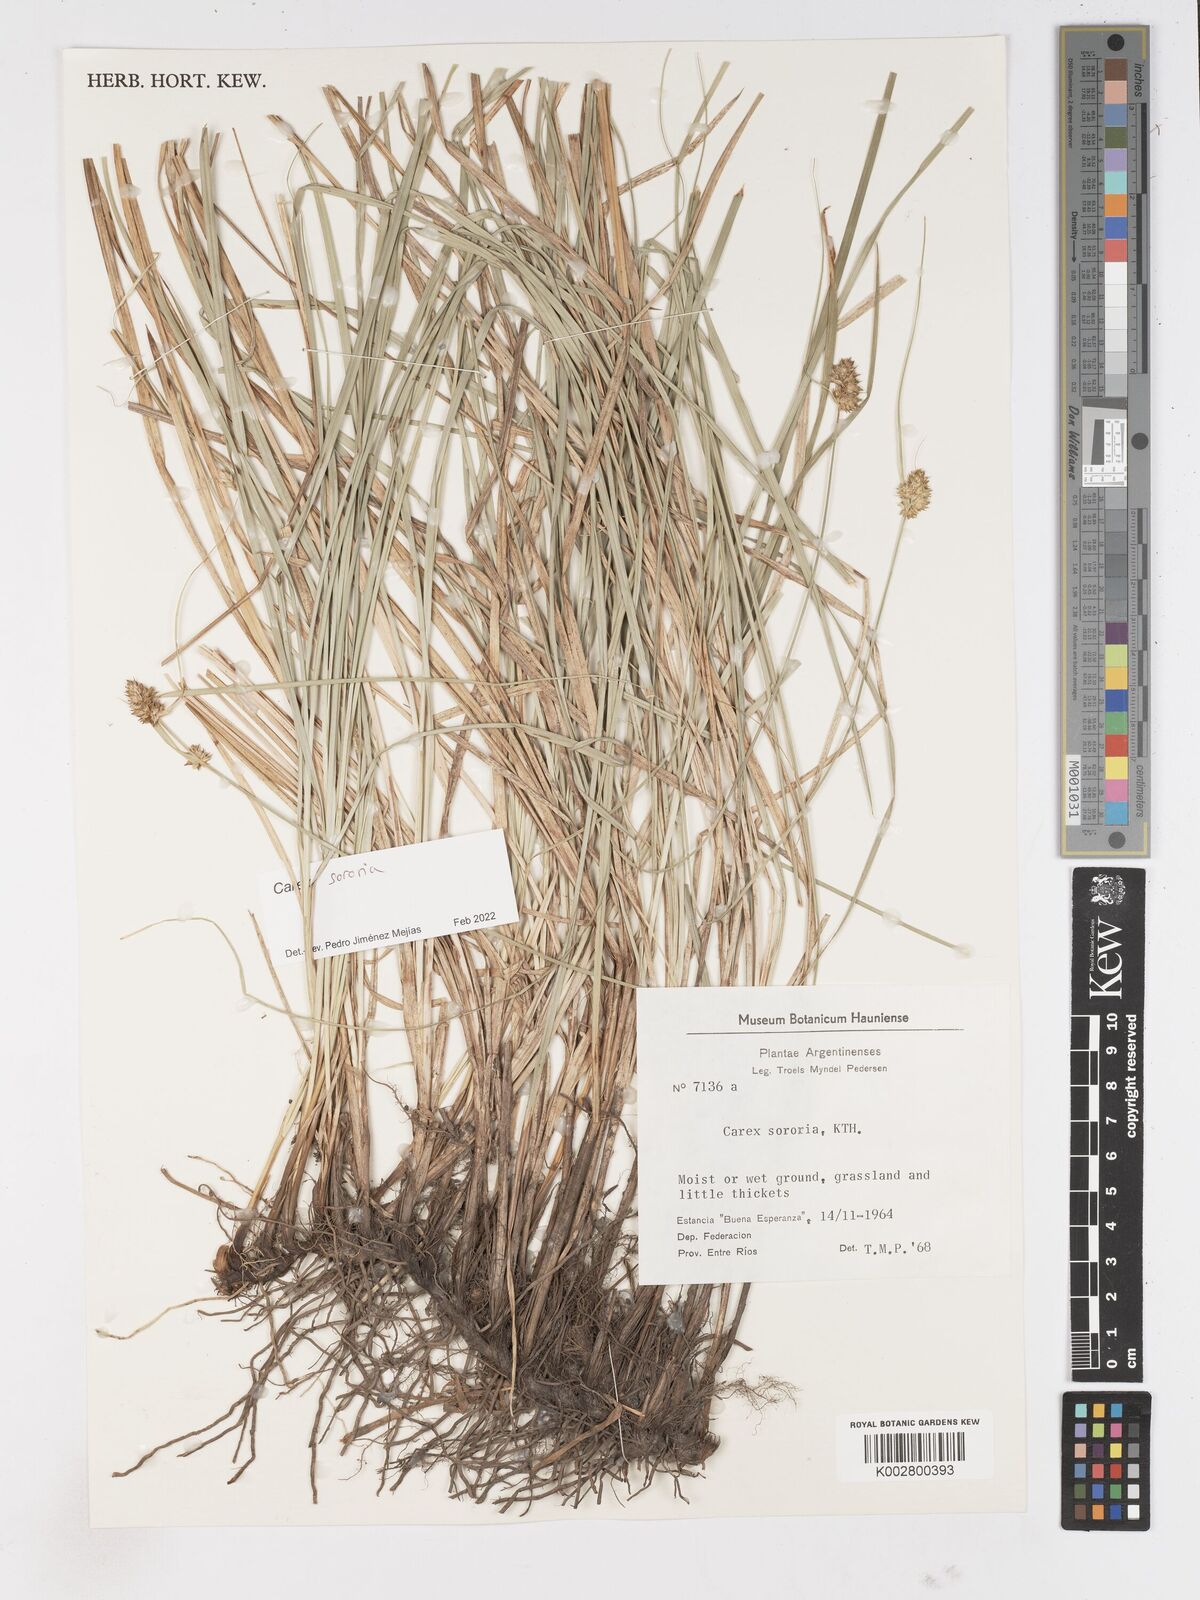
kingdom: Plantae
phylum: Tracheophyta
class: Liliopsida
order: Poales
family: Cyperaceae
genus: Carex
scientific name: Carex sororia
